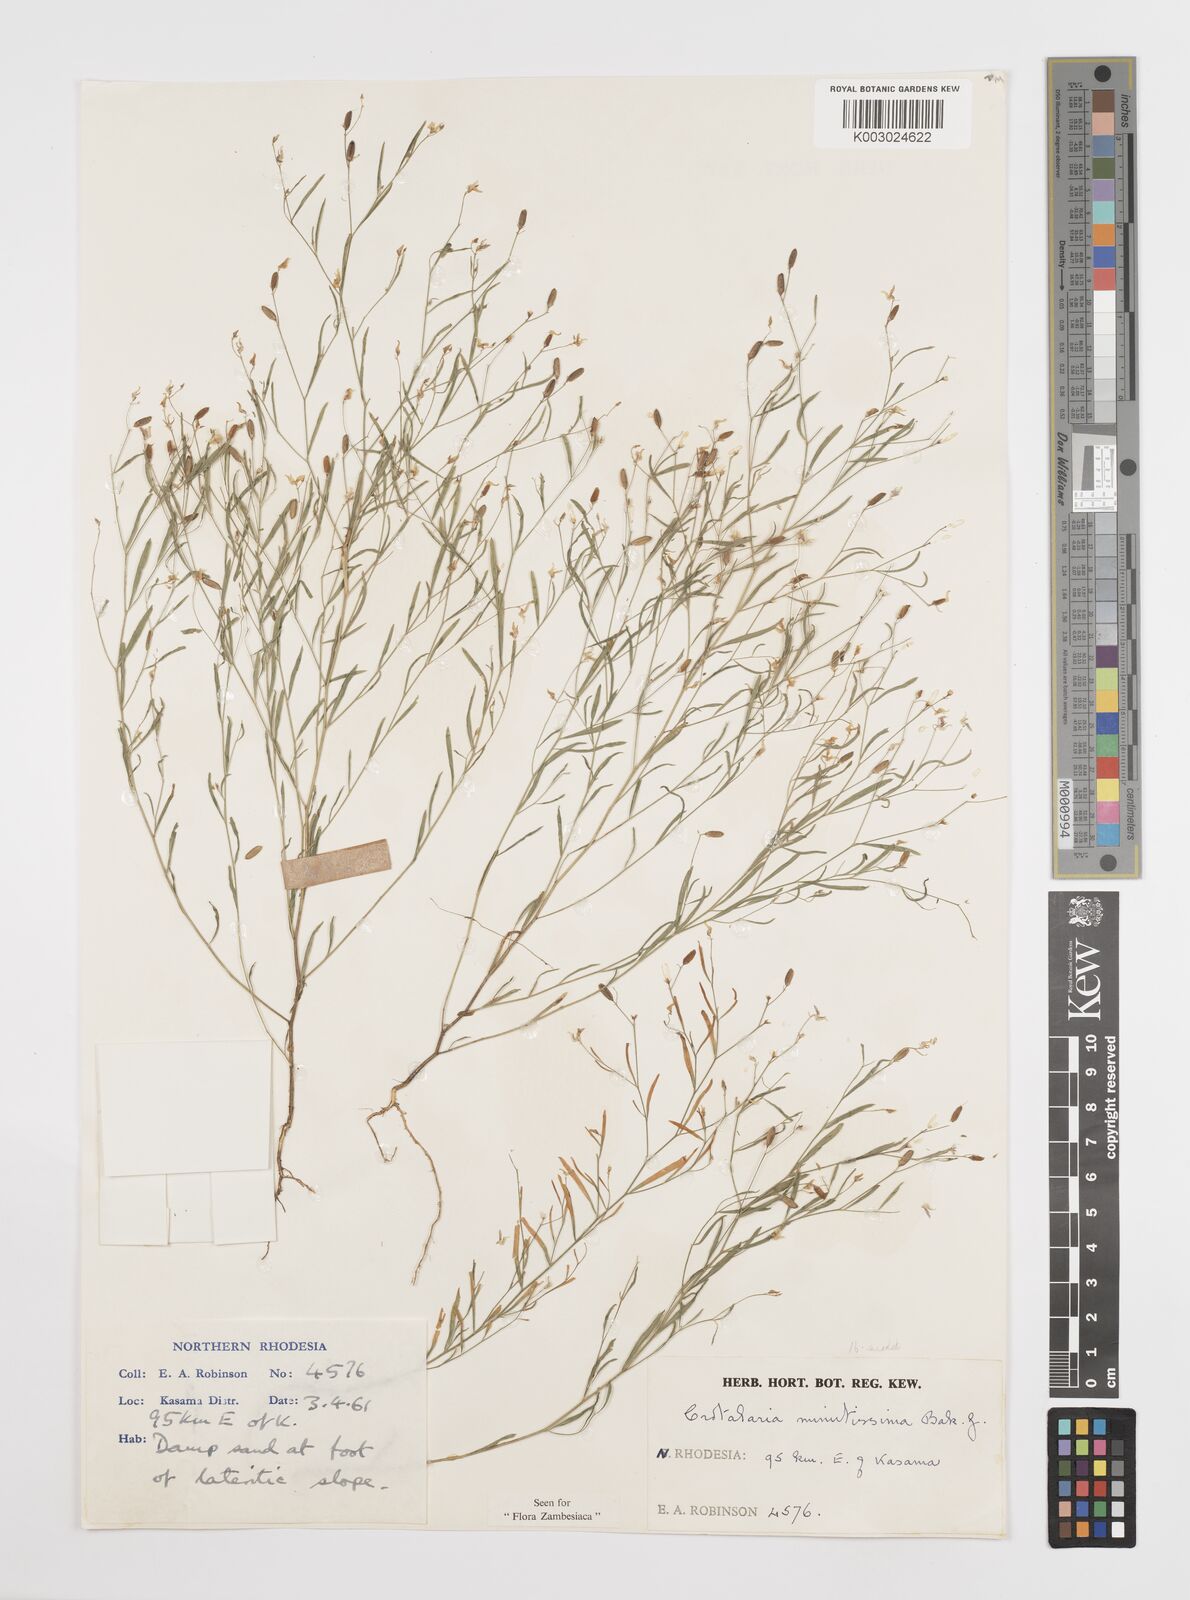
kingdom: Plantae
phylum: Tracheophyta
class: Magnoliopsida
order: Fabales
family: Fabaceae
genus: Crotalaria
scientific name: Crotalaria minutissima
